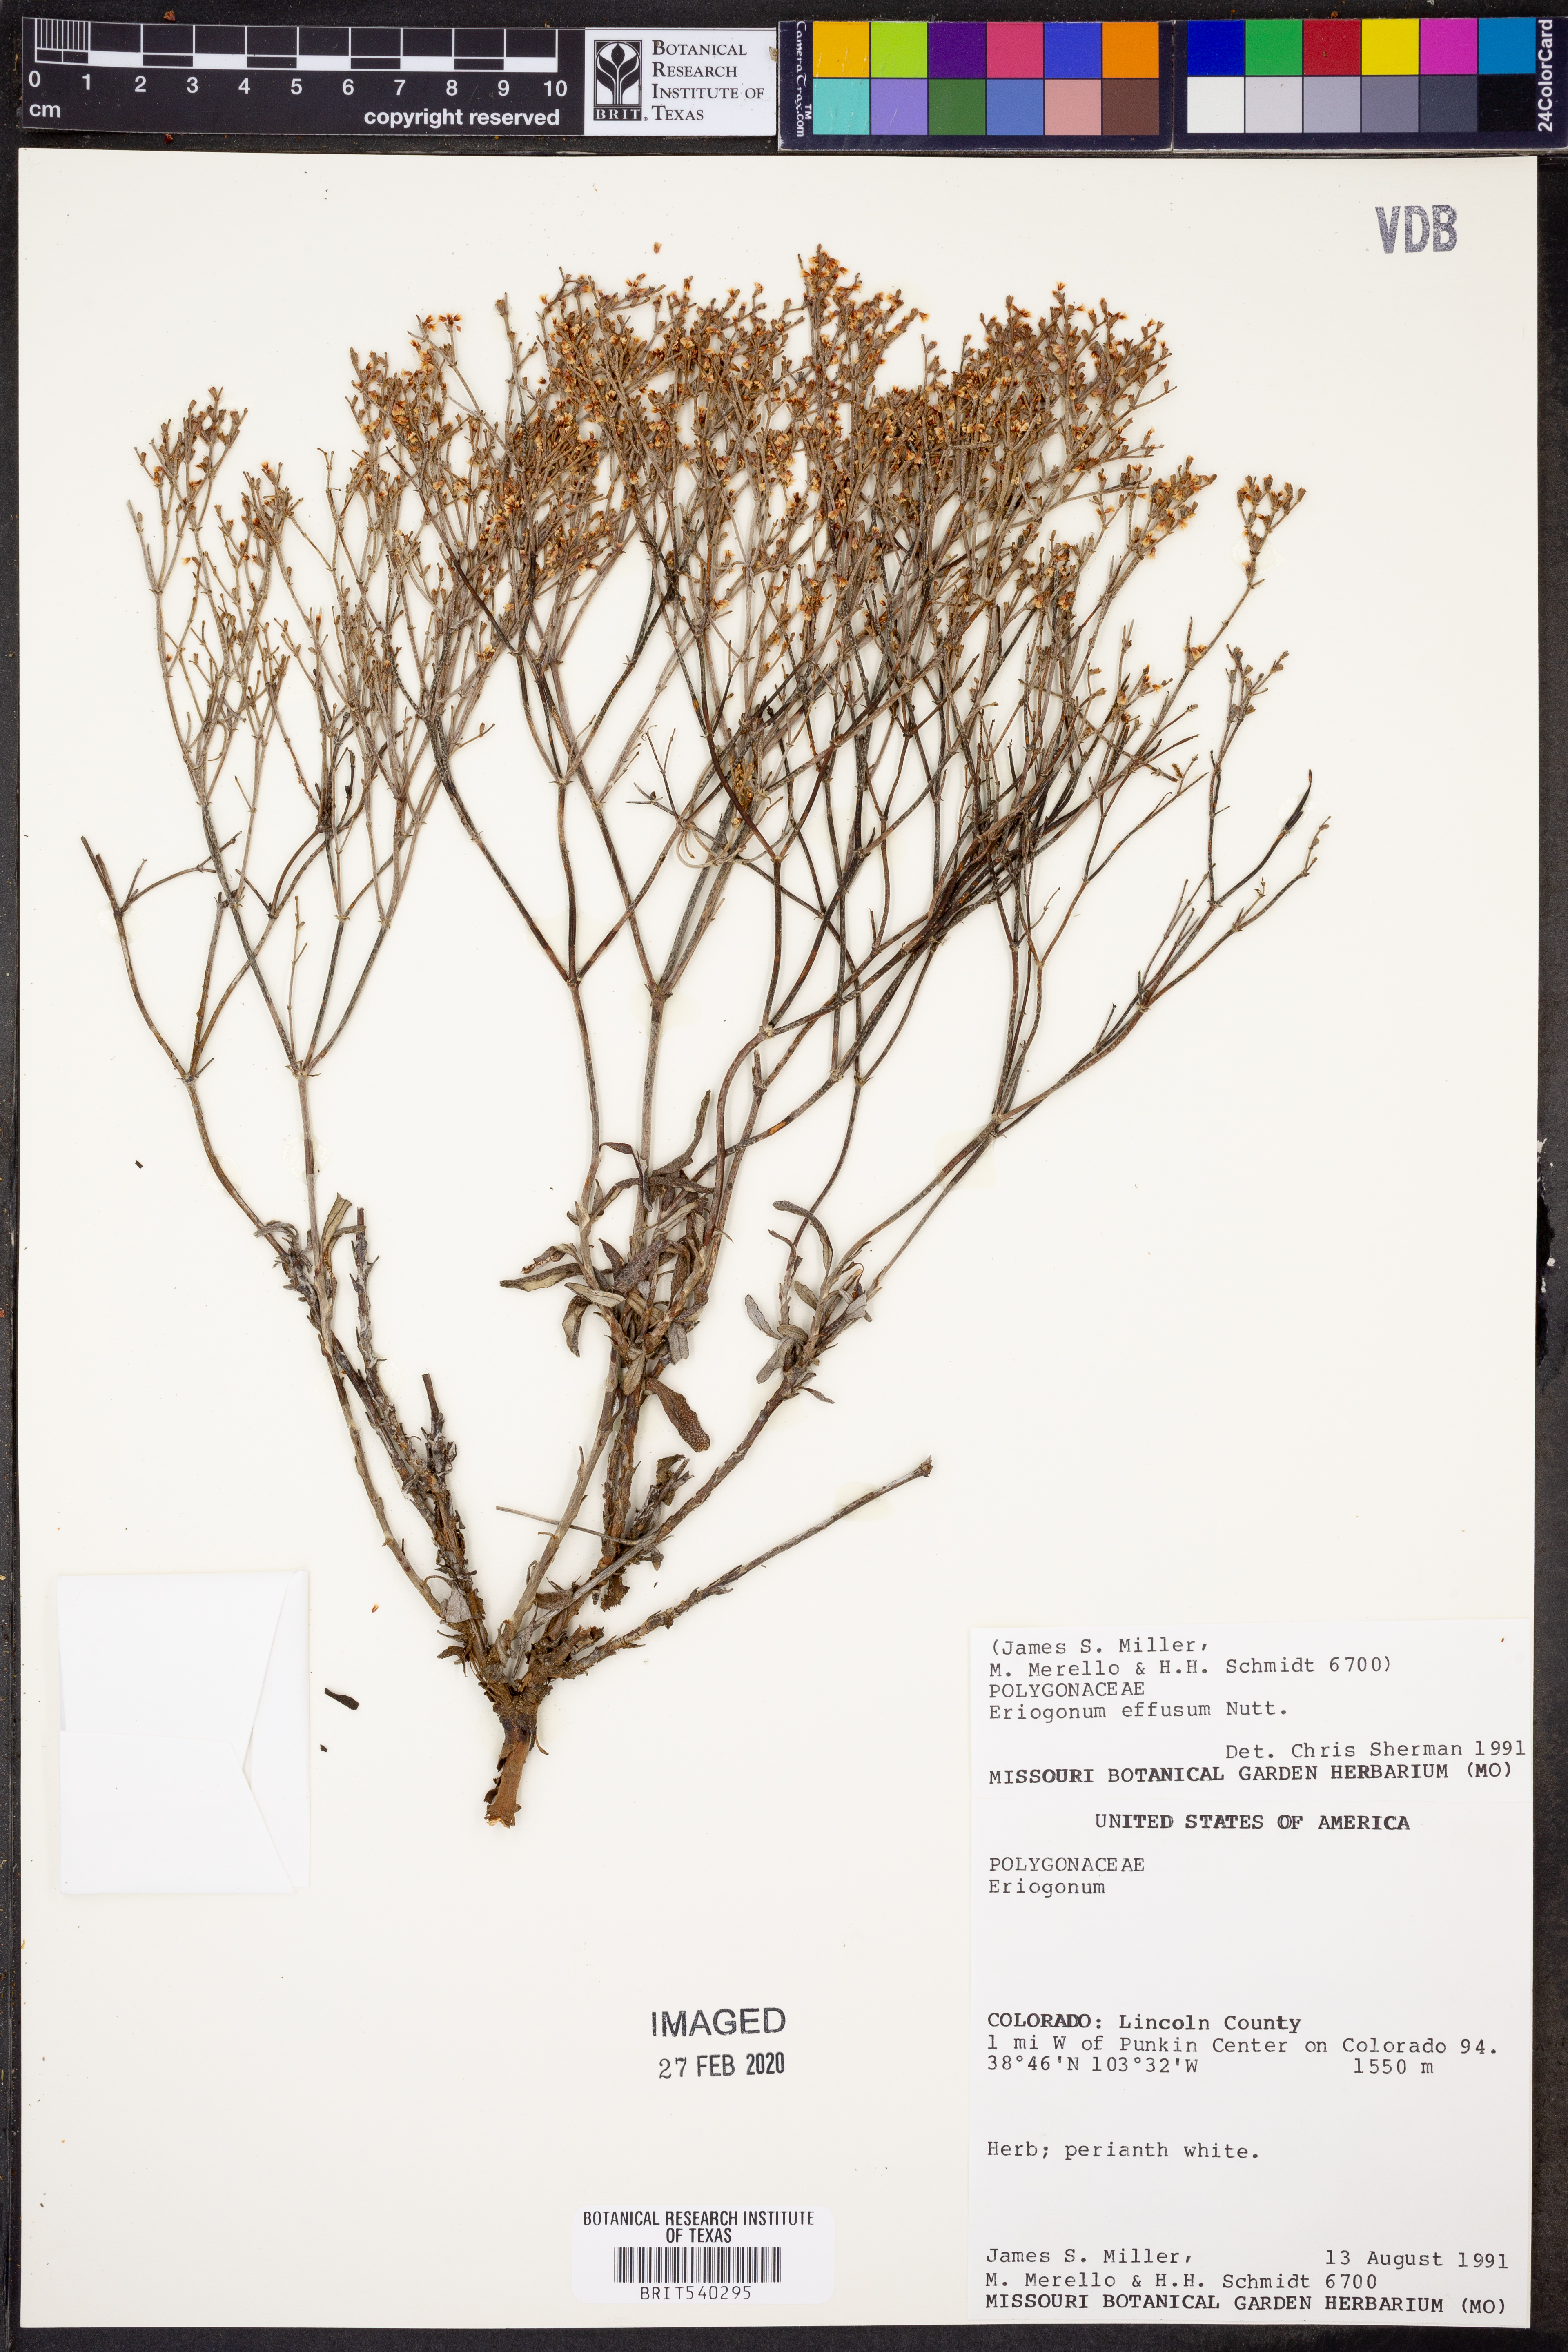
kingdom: Plantae
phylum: Tracheophyta
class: Magnoliopsida
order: Caryophyllales
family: Polygonaceae
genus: Eriogonum
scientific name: Eriogonum effusum
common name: Spreading wild buckwheat
